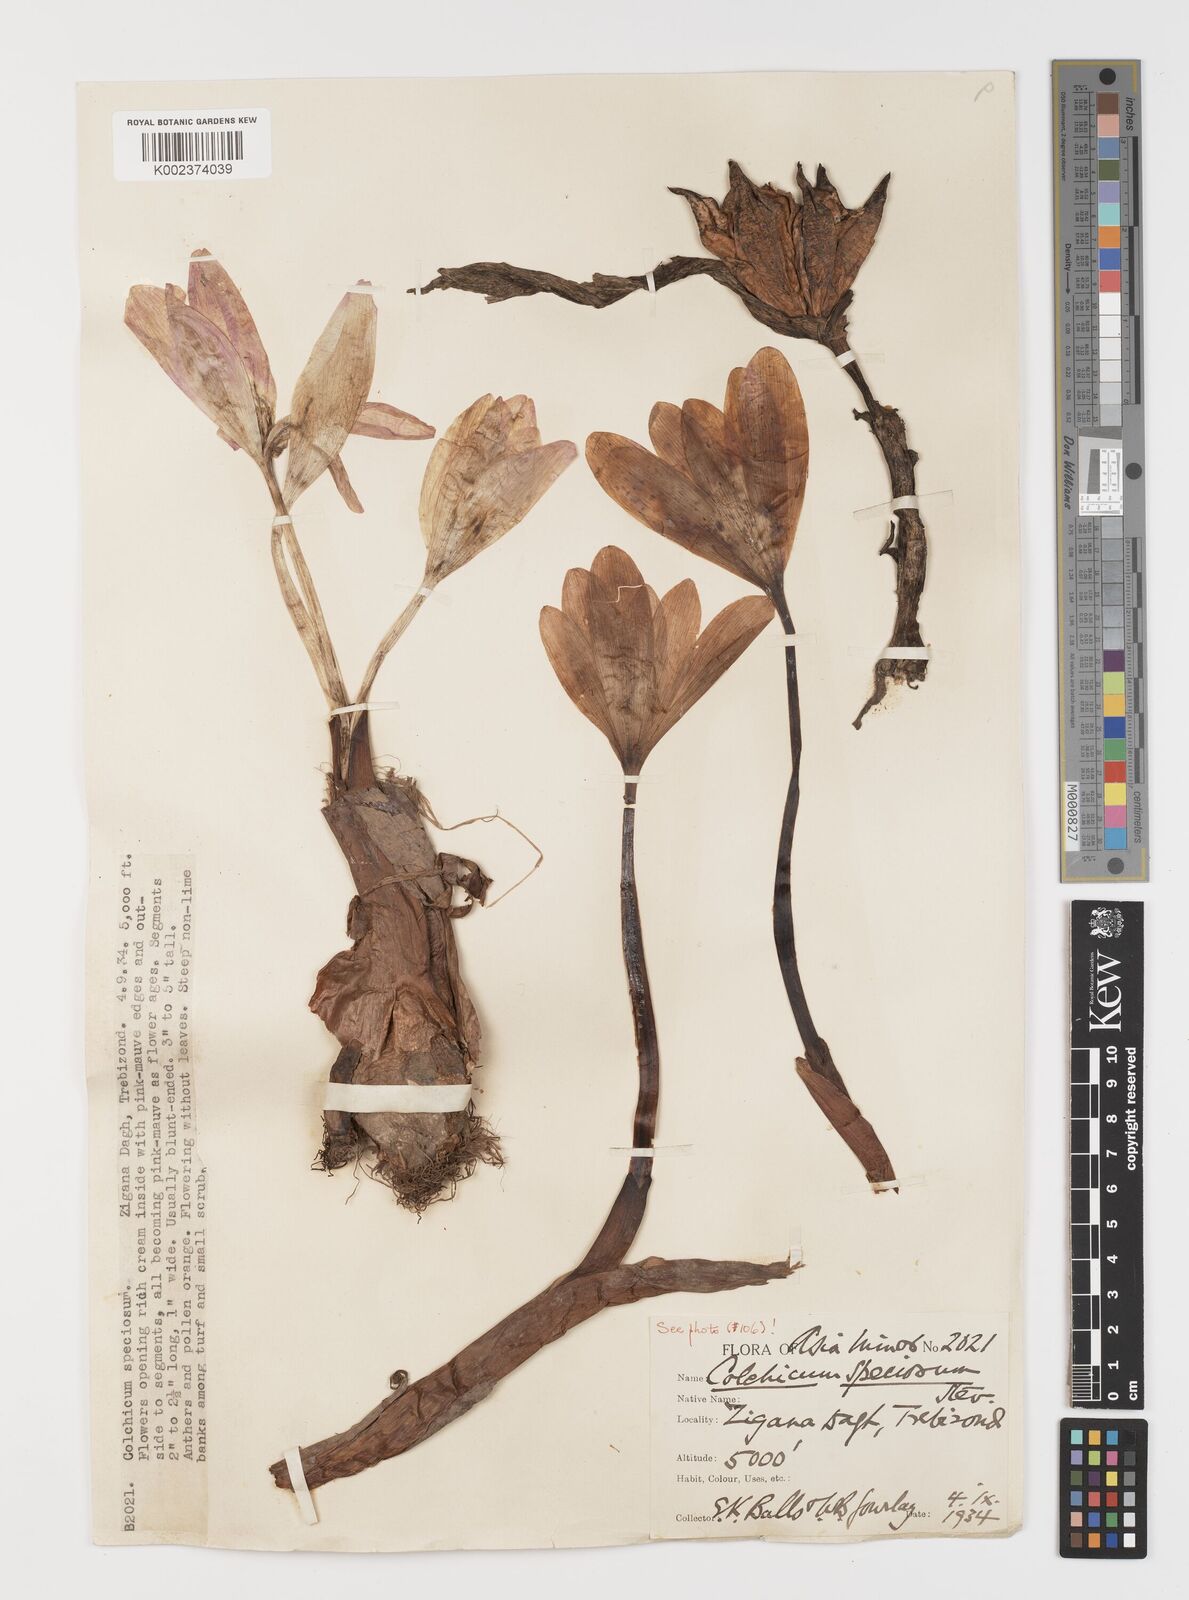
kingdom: Plantae
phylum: Tracheophyta
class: Liliopsida
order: Liliales
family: Colchicaceae
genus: Colchicum
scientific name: Colchicum speciosum
